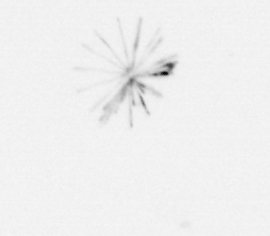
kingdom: Chromista
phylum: Ochrophyta
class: Bacillariophyceae
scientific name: Bacillariophyceae
